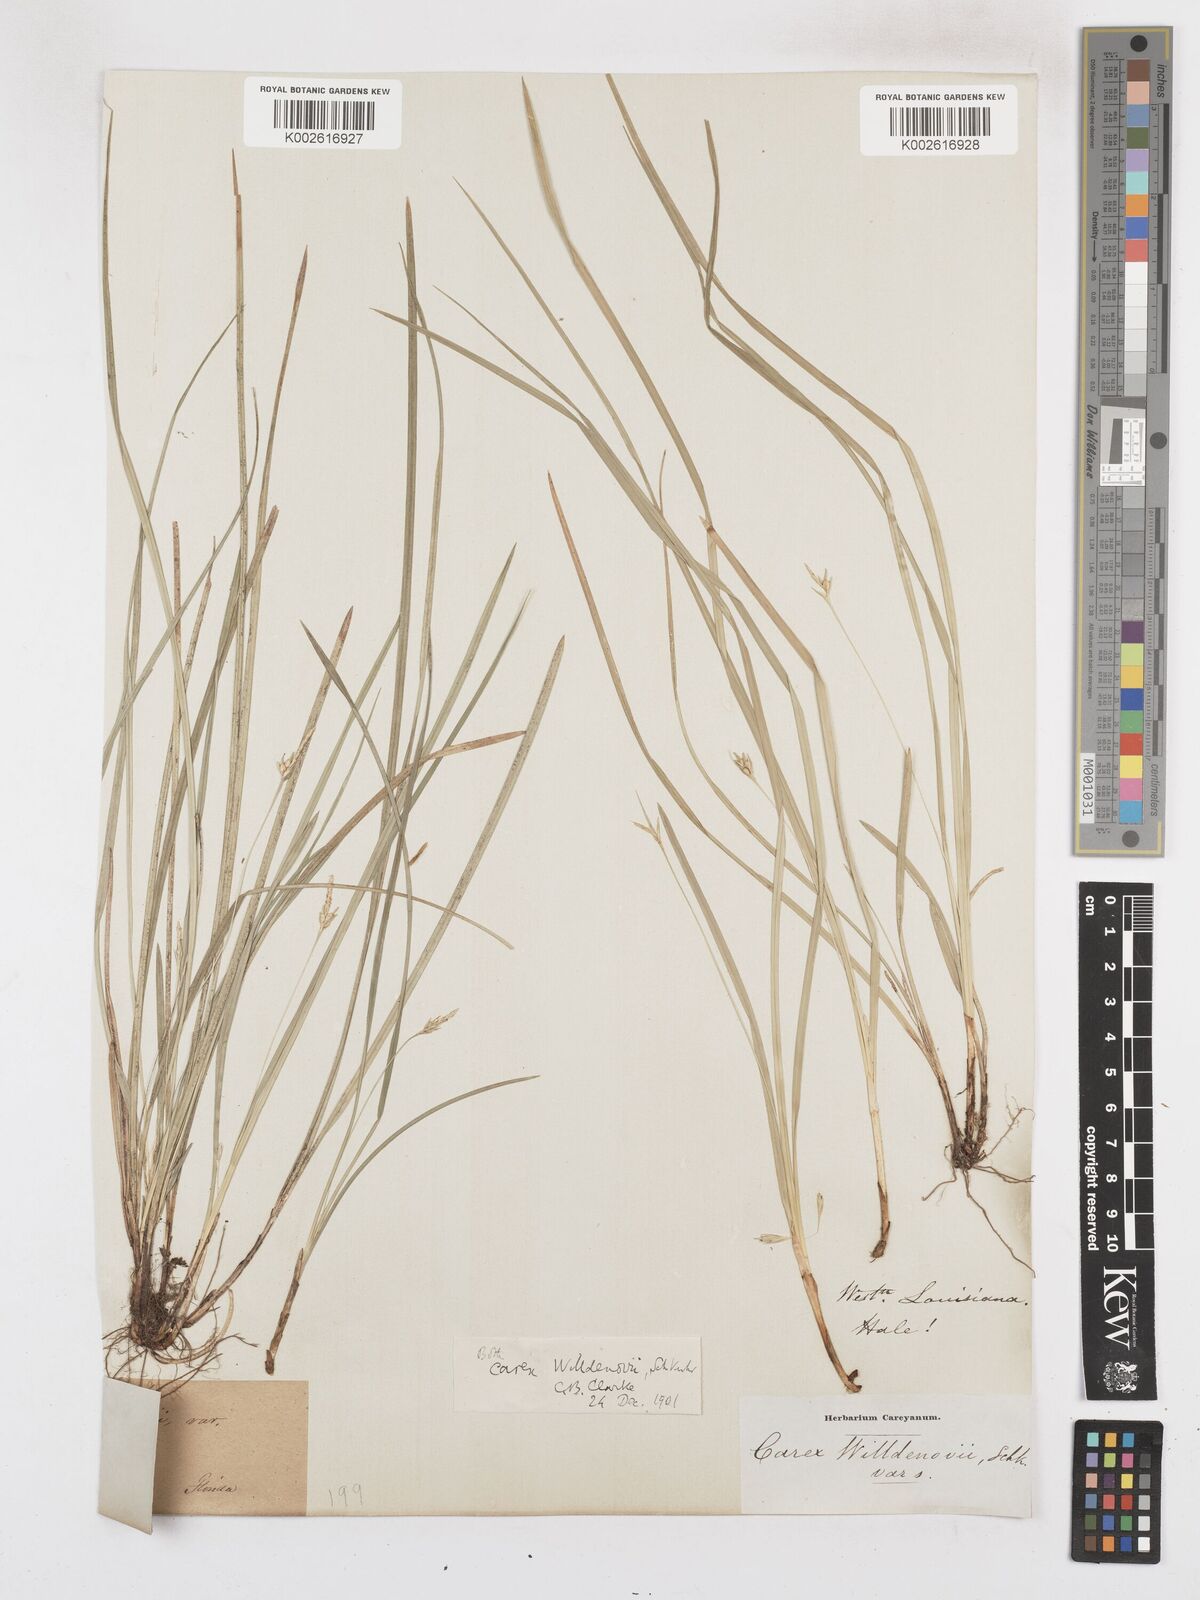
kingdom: Plantae
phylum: Tracheophyta
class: Liliopsida
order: Poales
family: Cyperaceae
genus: Carex
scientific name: Carex willdenowii
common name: Willdenow's sedge
